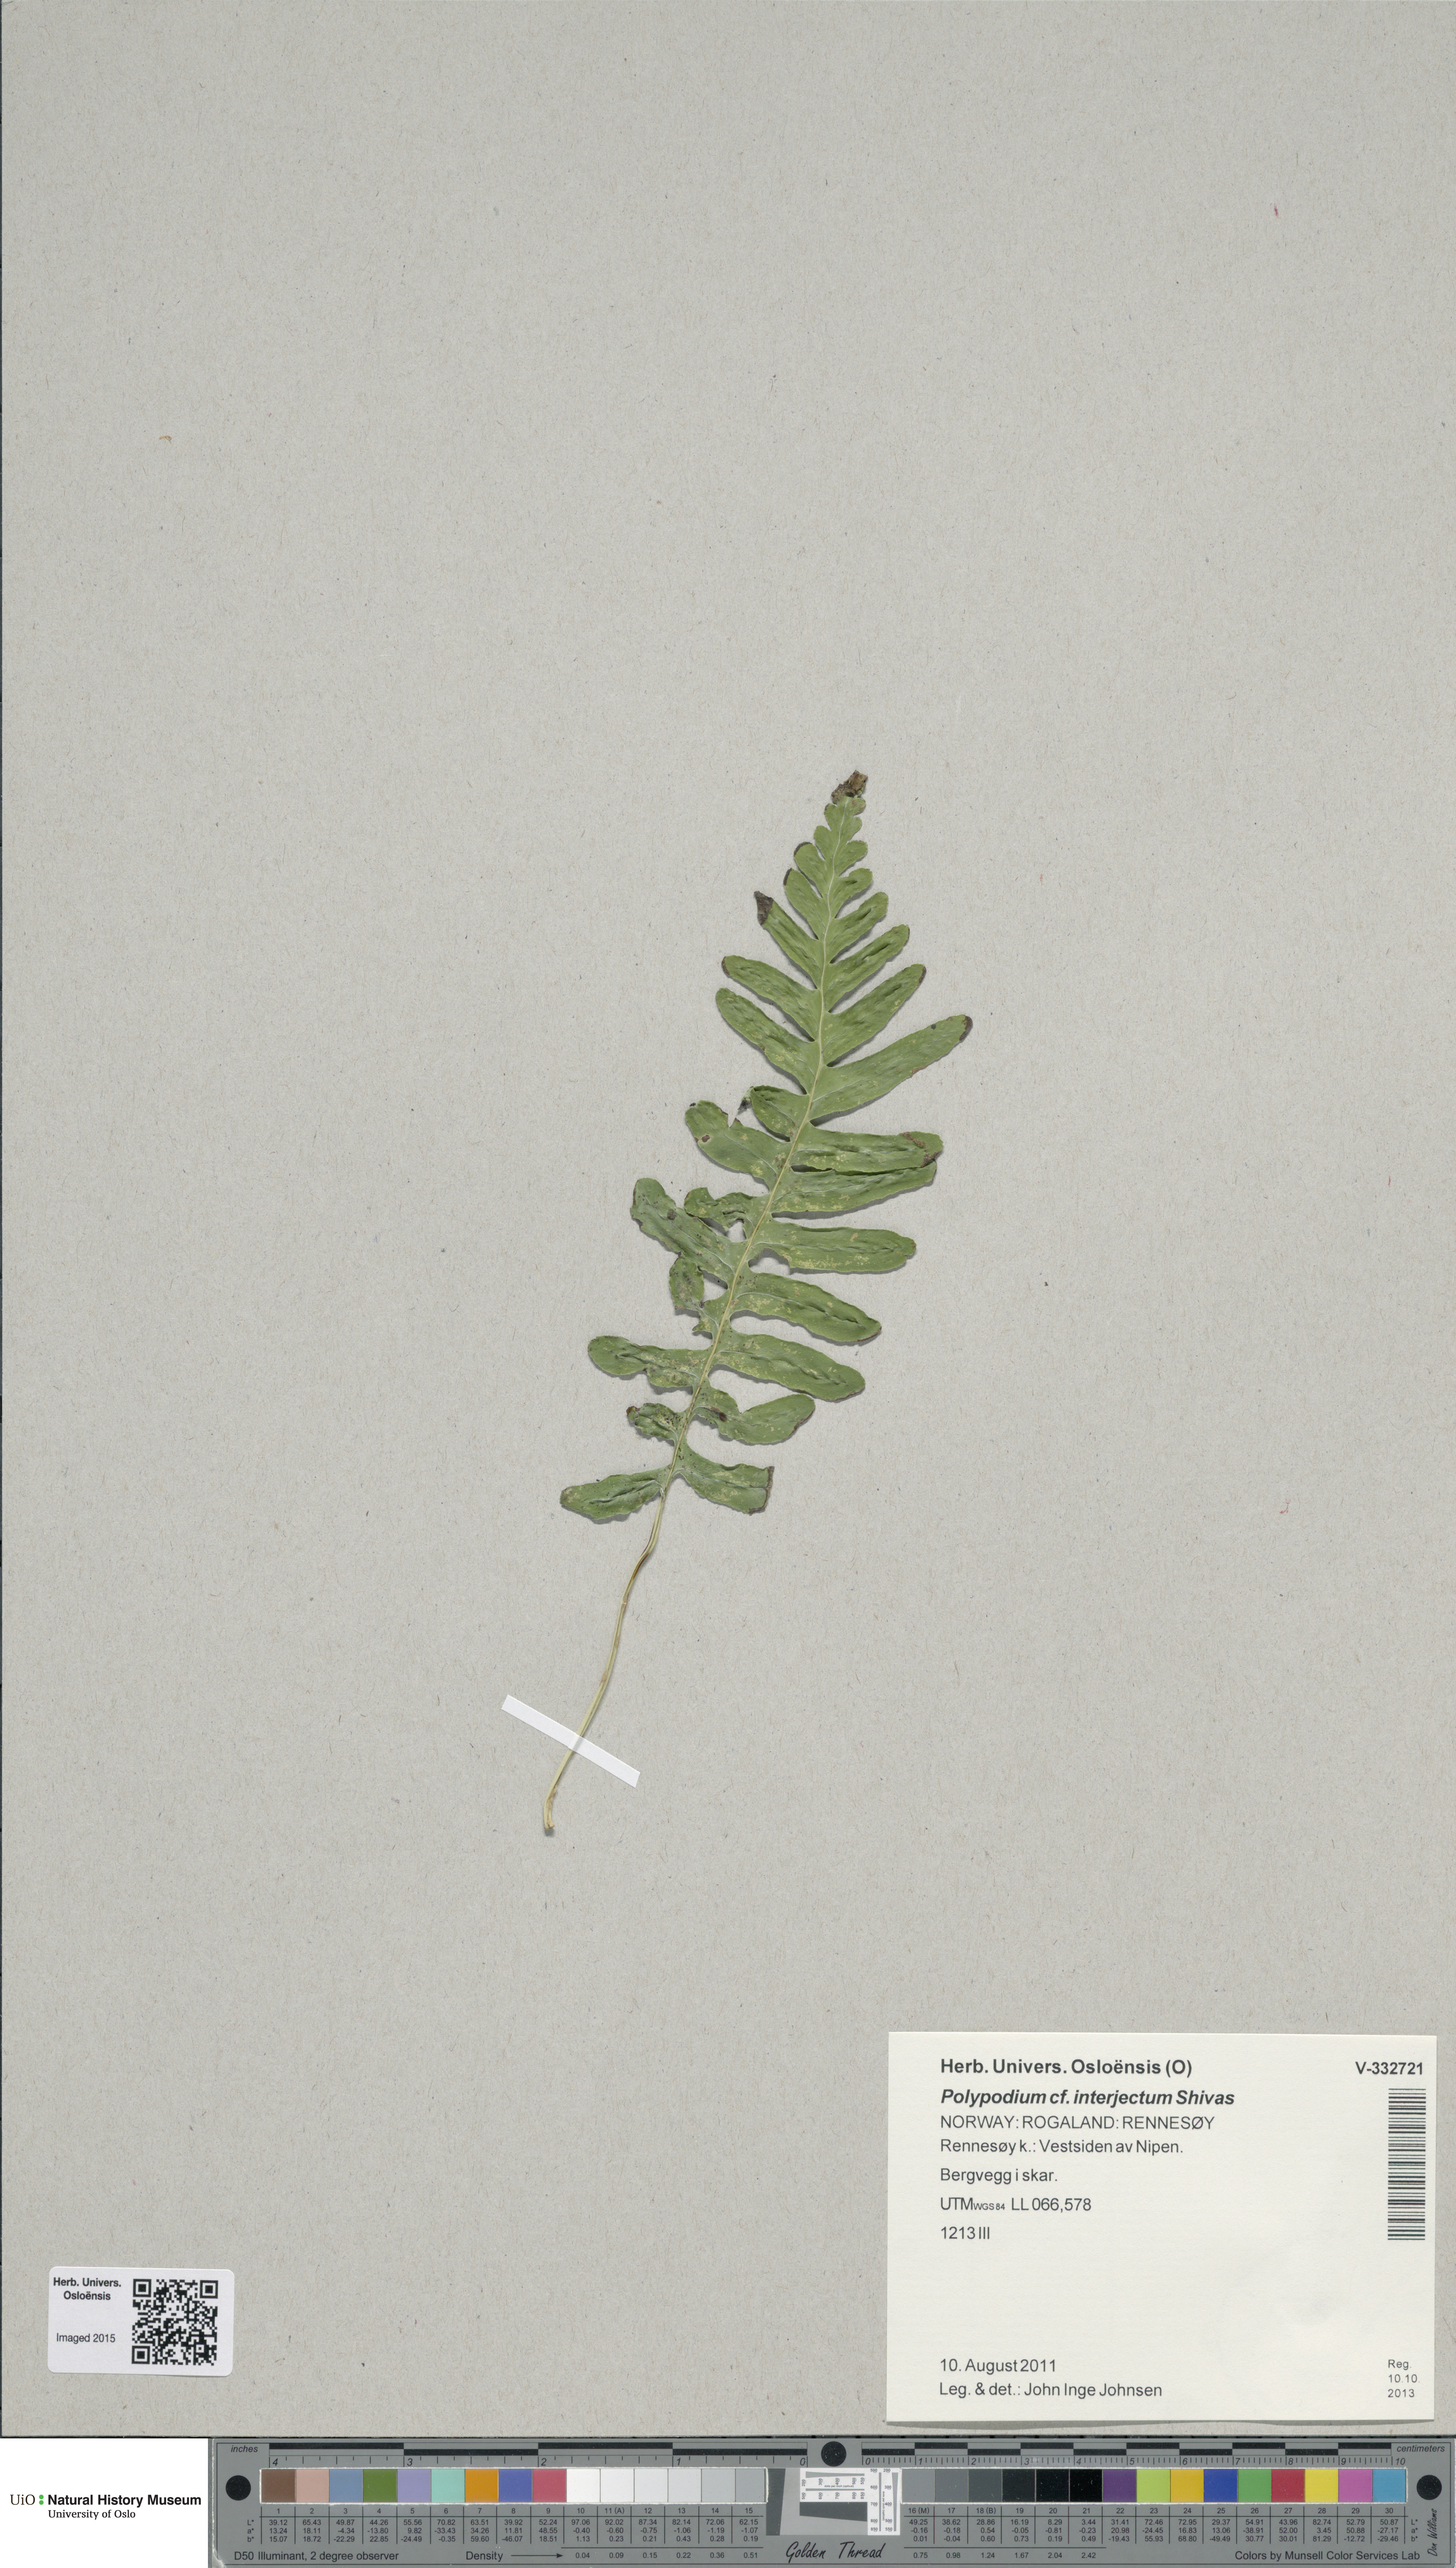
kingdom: Plantae
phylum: Tracheophyta
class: Polypodiopsida
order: Polypodiales
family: Polypodiaceae
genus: Polypodium
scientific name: Polypodium interjectum
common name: Intermediate polypody
